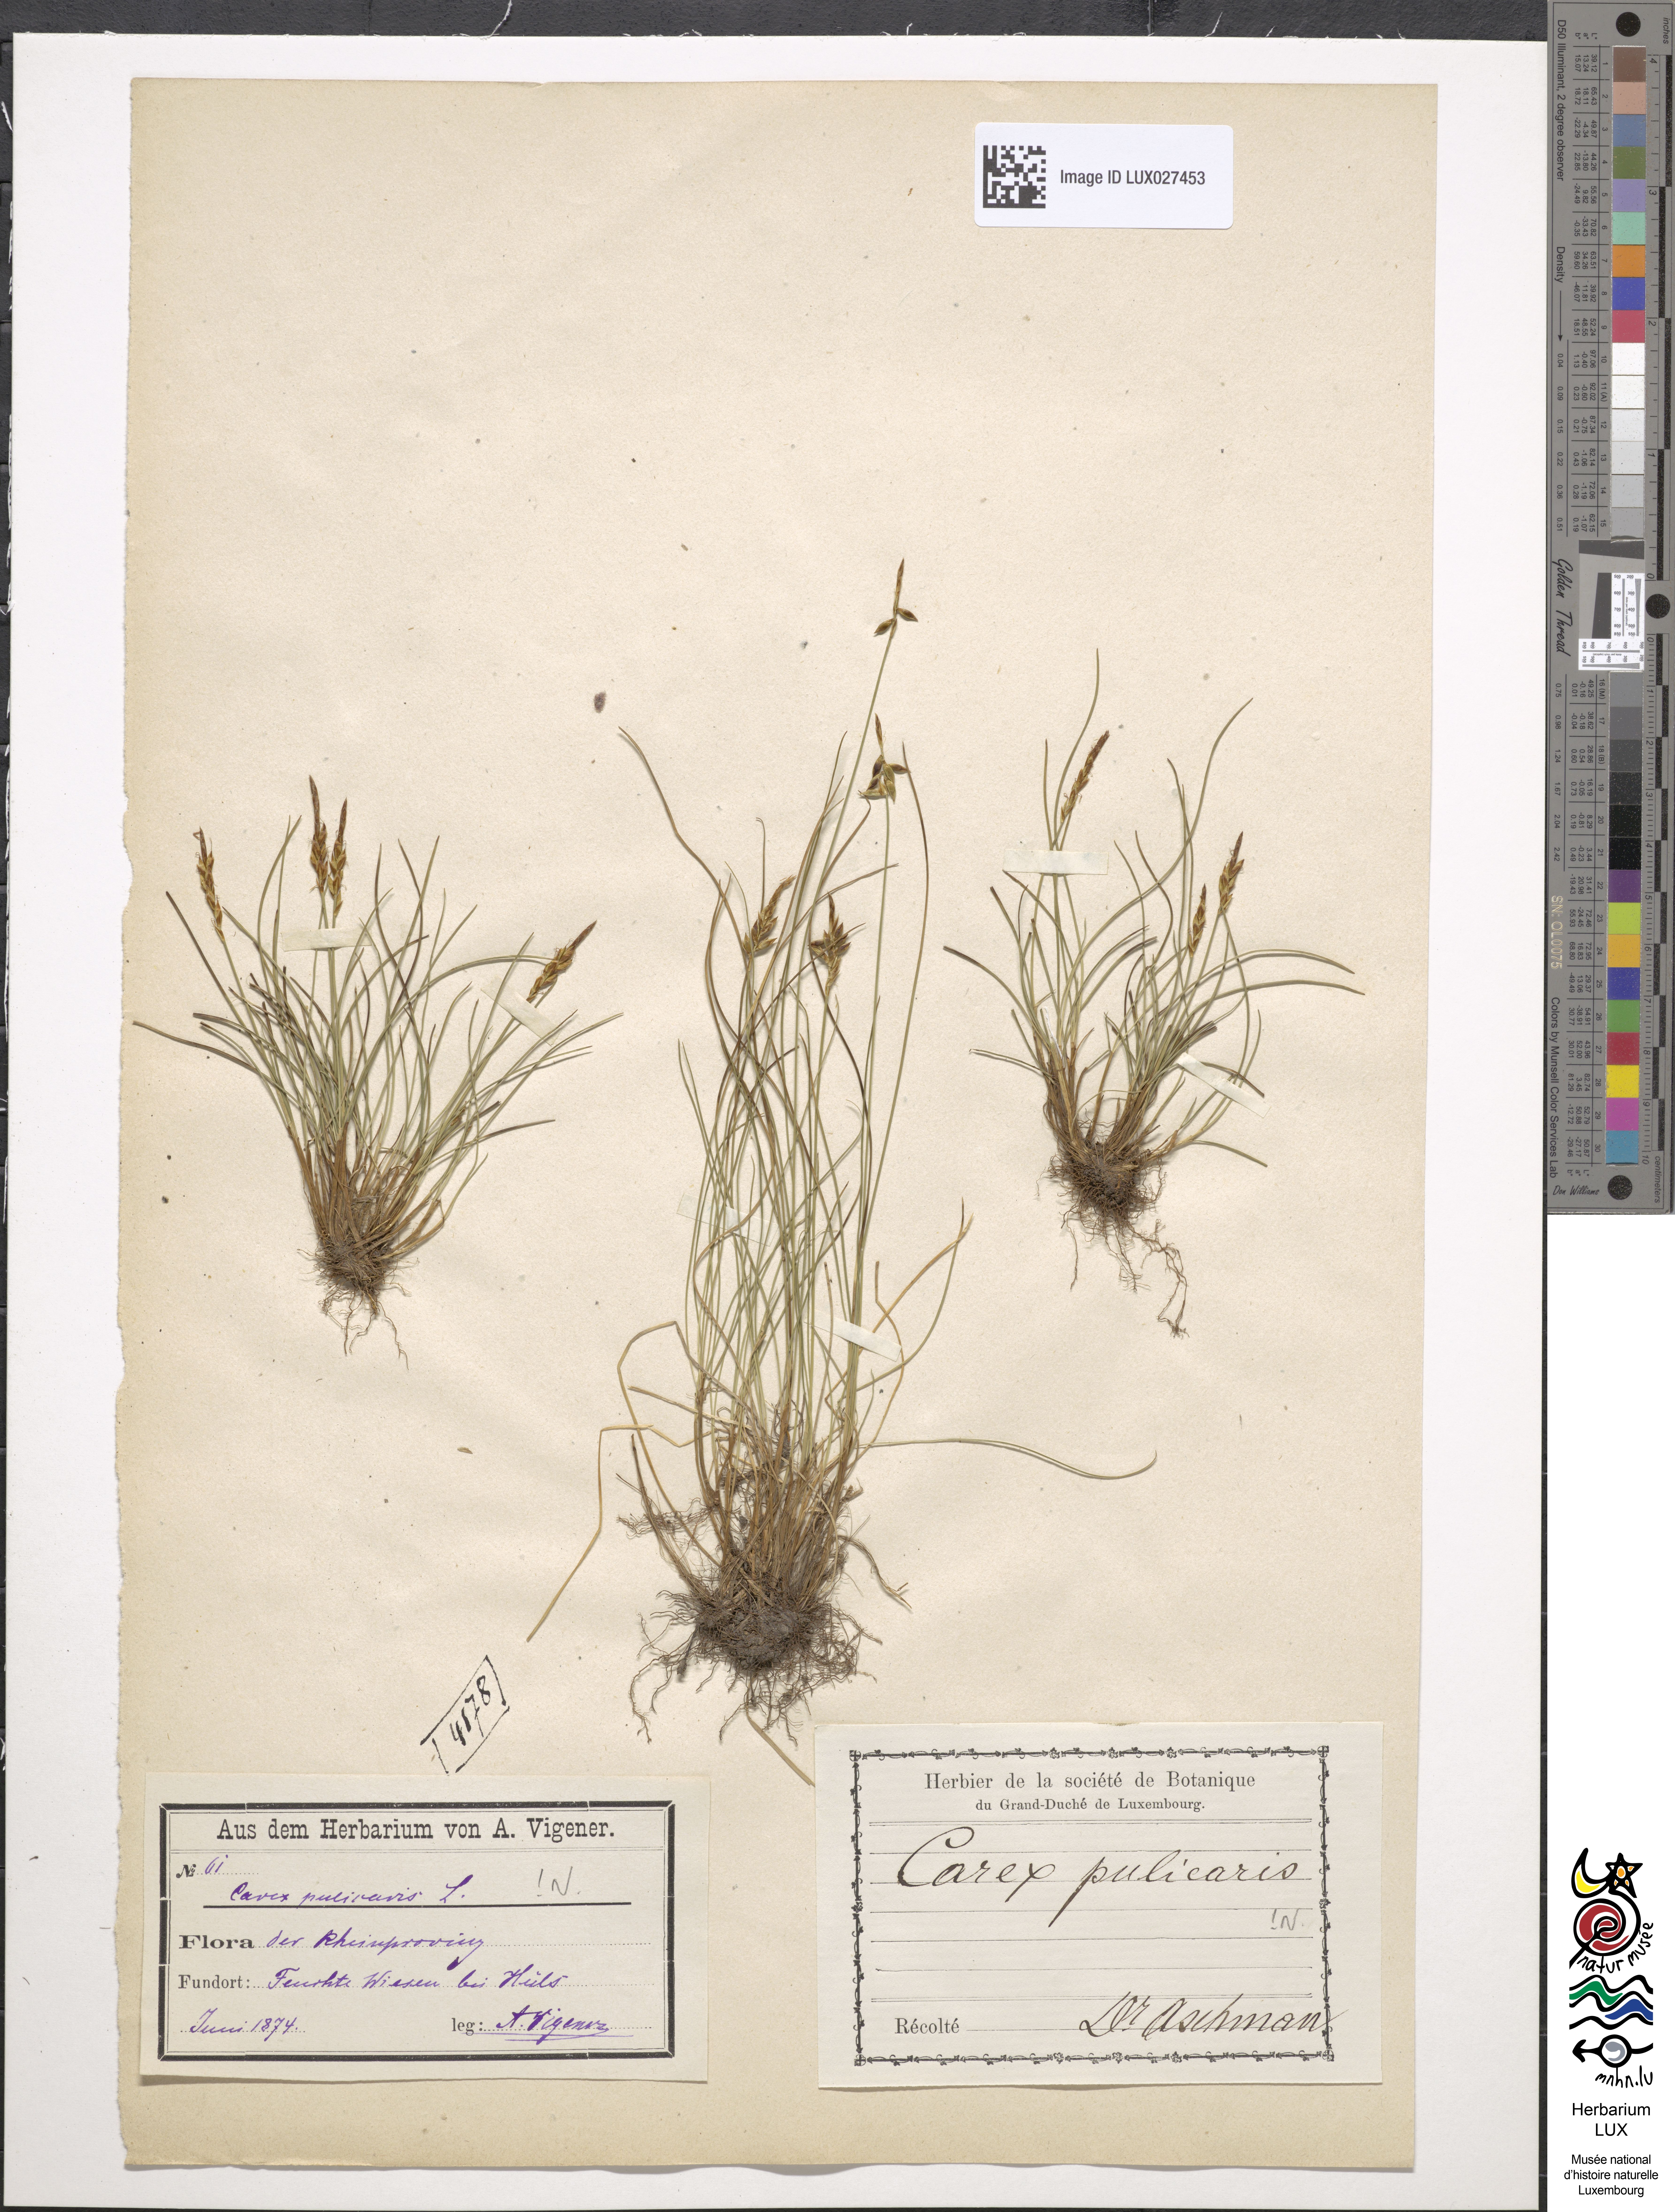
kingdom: Plantae
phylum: Tracheophyta
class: Liliopsida
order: Poales
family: Cyperaceae
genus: Carex
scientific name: Carex pulicaris
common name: Flea sedge
